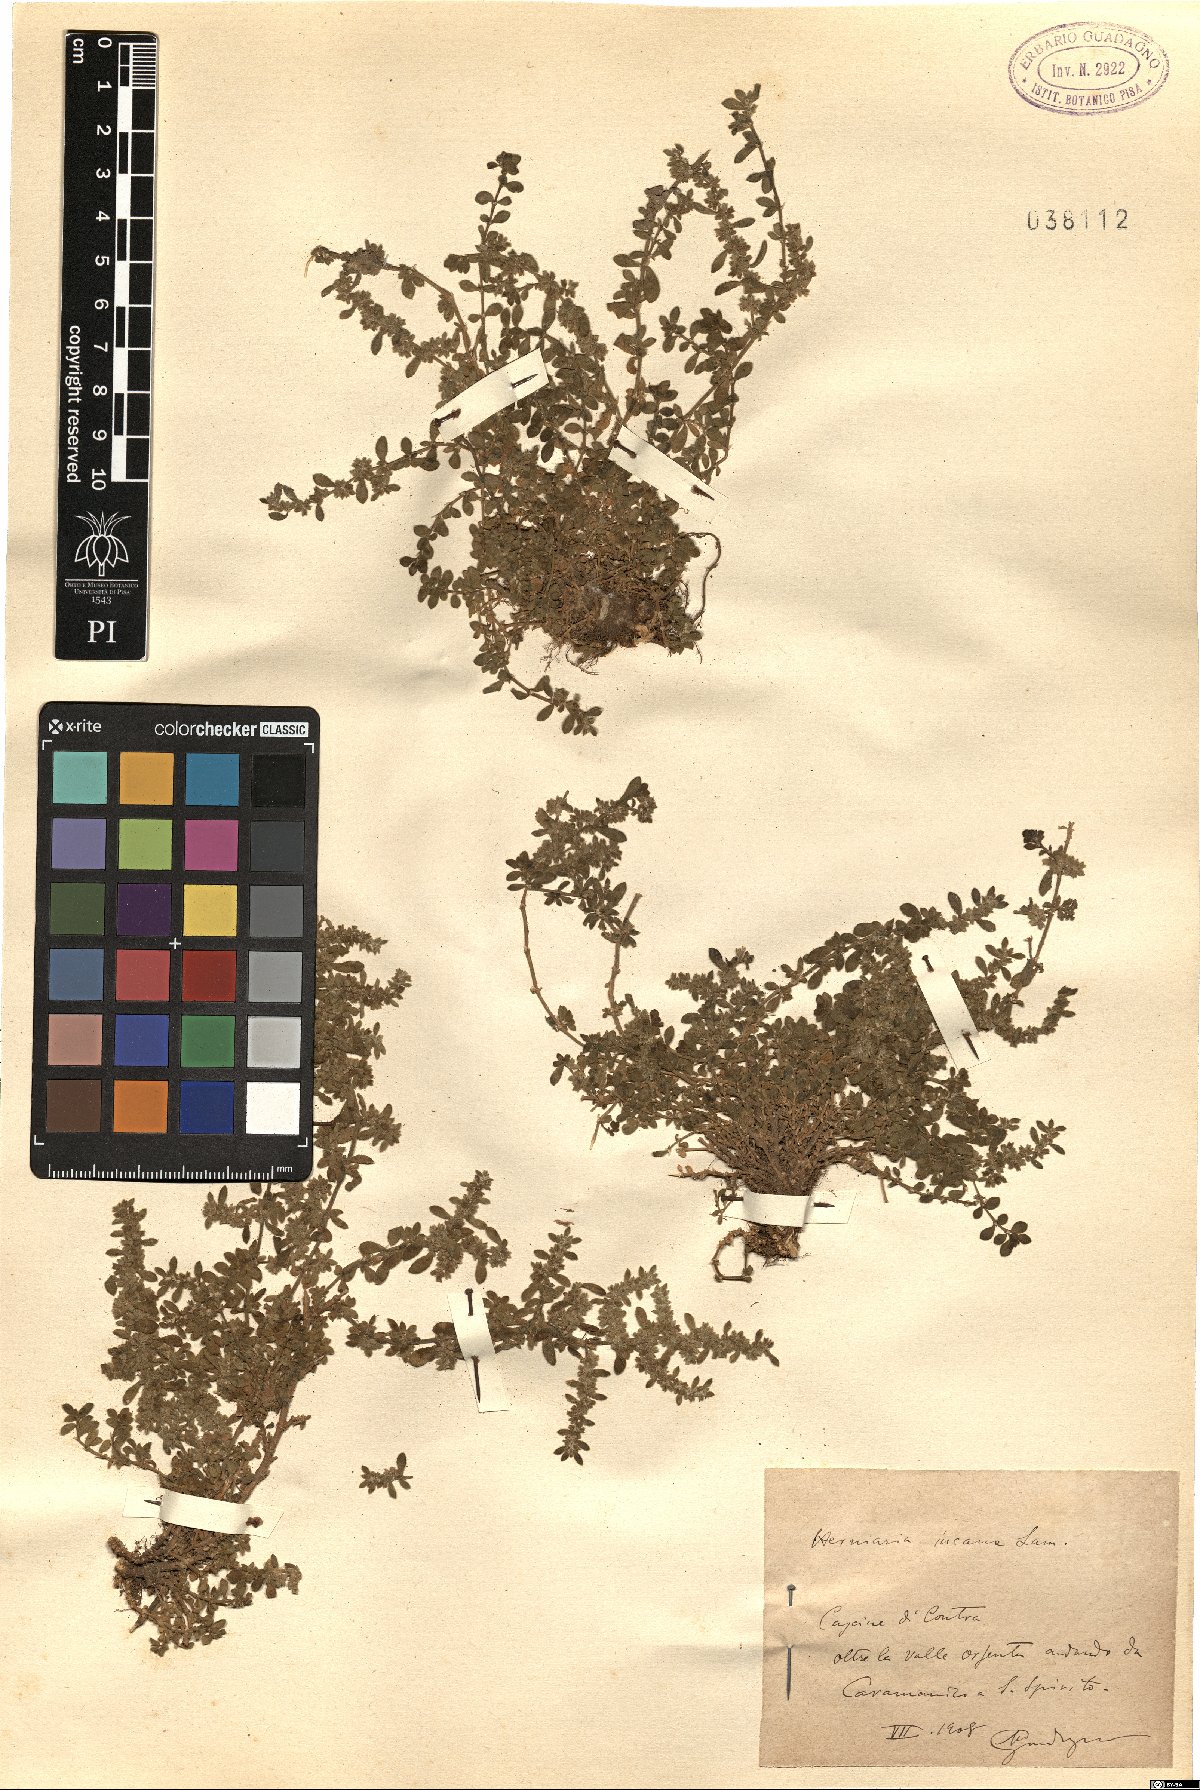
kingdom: Plantae
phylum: Tracheophyta
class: Magnoliopsida
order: Caryophyllales
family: Caryophyllaceae
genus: Herniaria
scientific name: Herniaria incana
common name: Gray rupturewort
